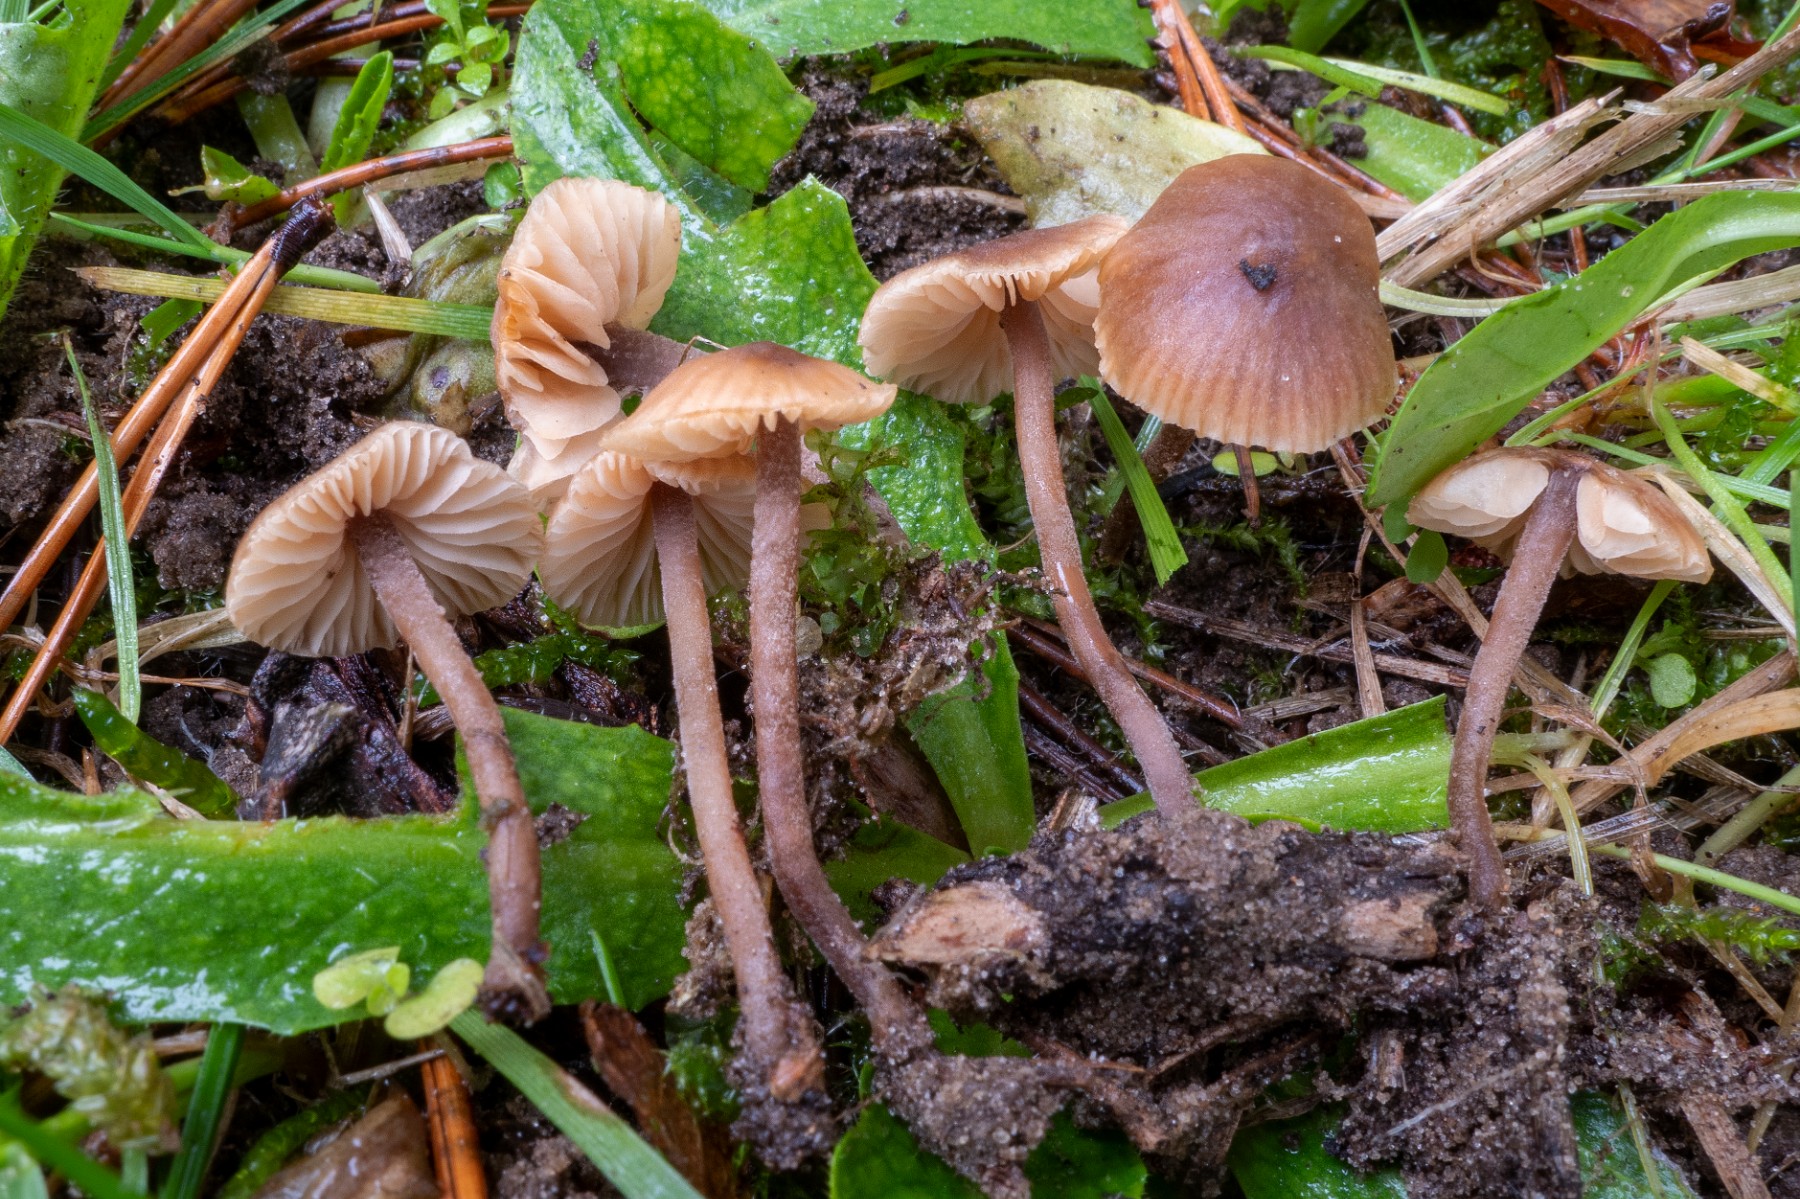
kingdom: Fungi
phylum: Basidiomycota
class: Agaricomycetes
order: Agaricales
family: Macrocystidiaceae
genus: Macrocystidia
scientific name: Macrocystidia cucumis
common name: Cucumber cap
